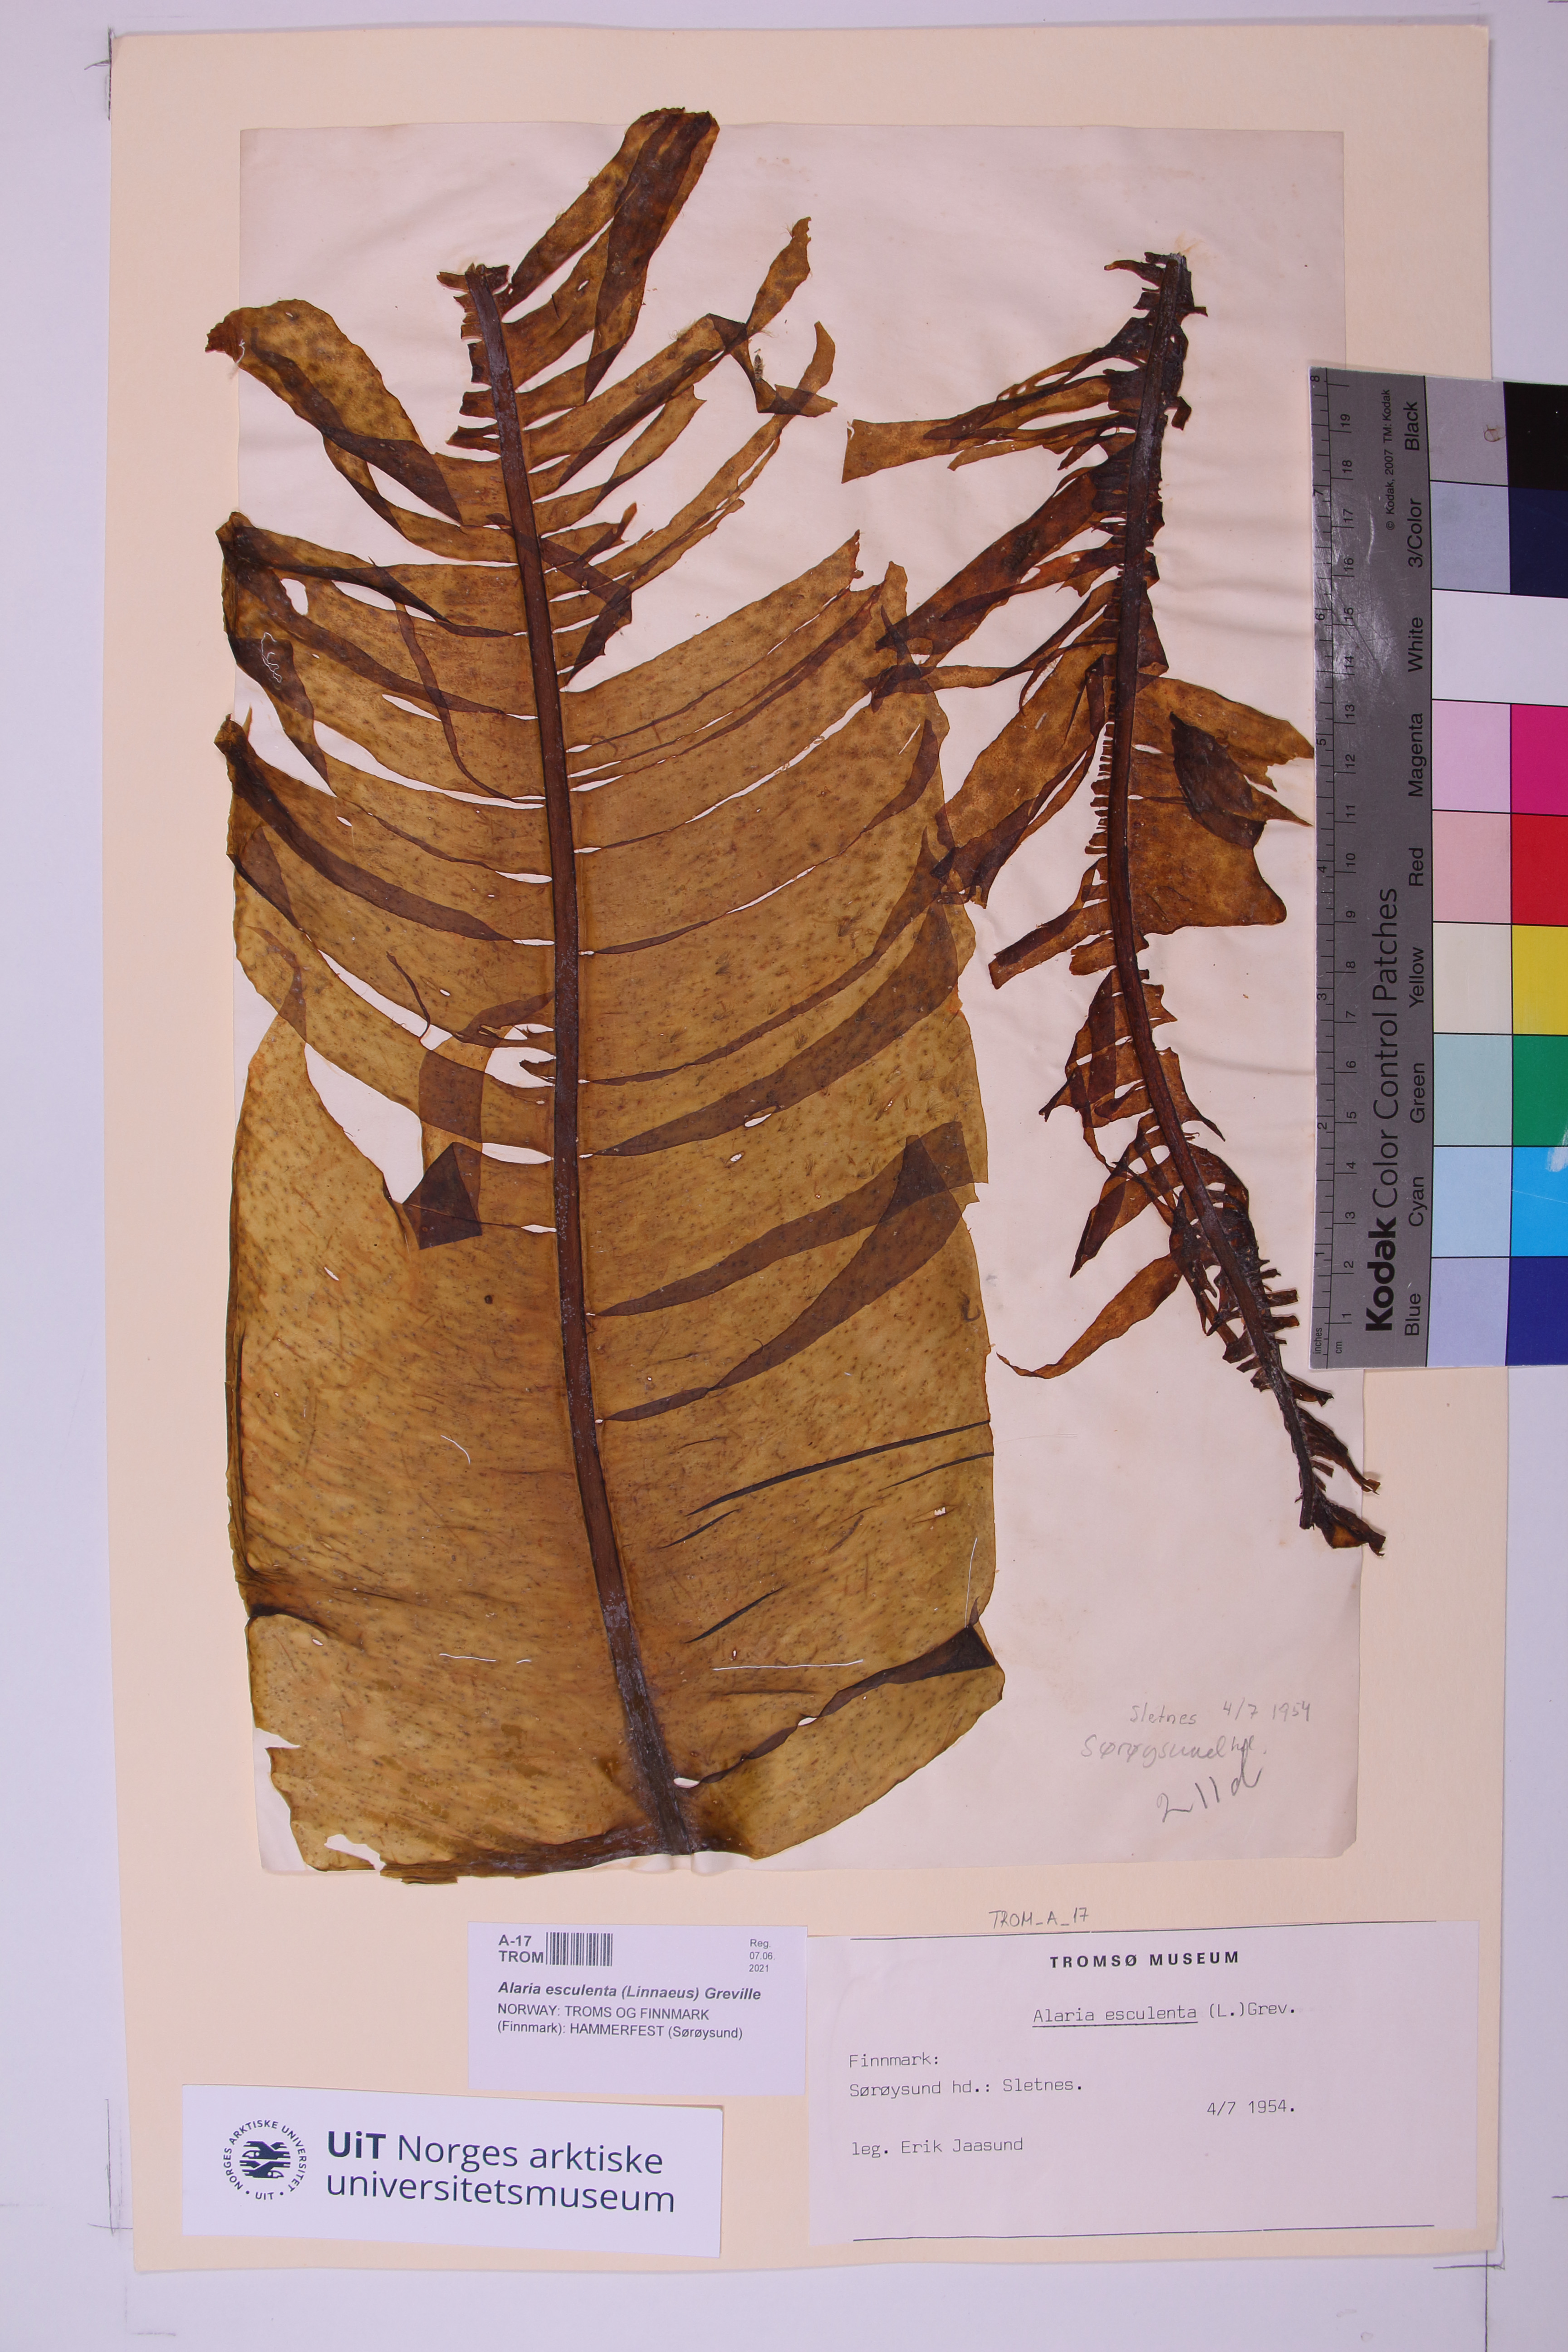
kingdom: Chromista
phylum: Ochrophyta
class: Phaeophyceae
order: Laminariales
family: Alariaceae
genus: Alaria
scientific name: Alaria esculenta
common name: Dabberlocks
